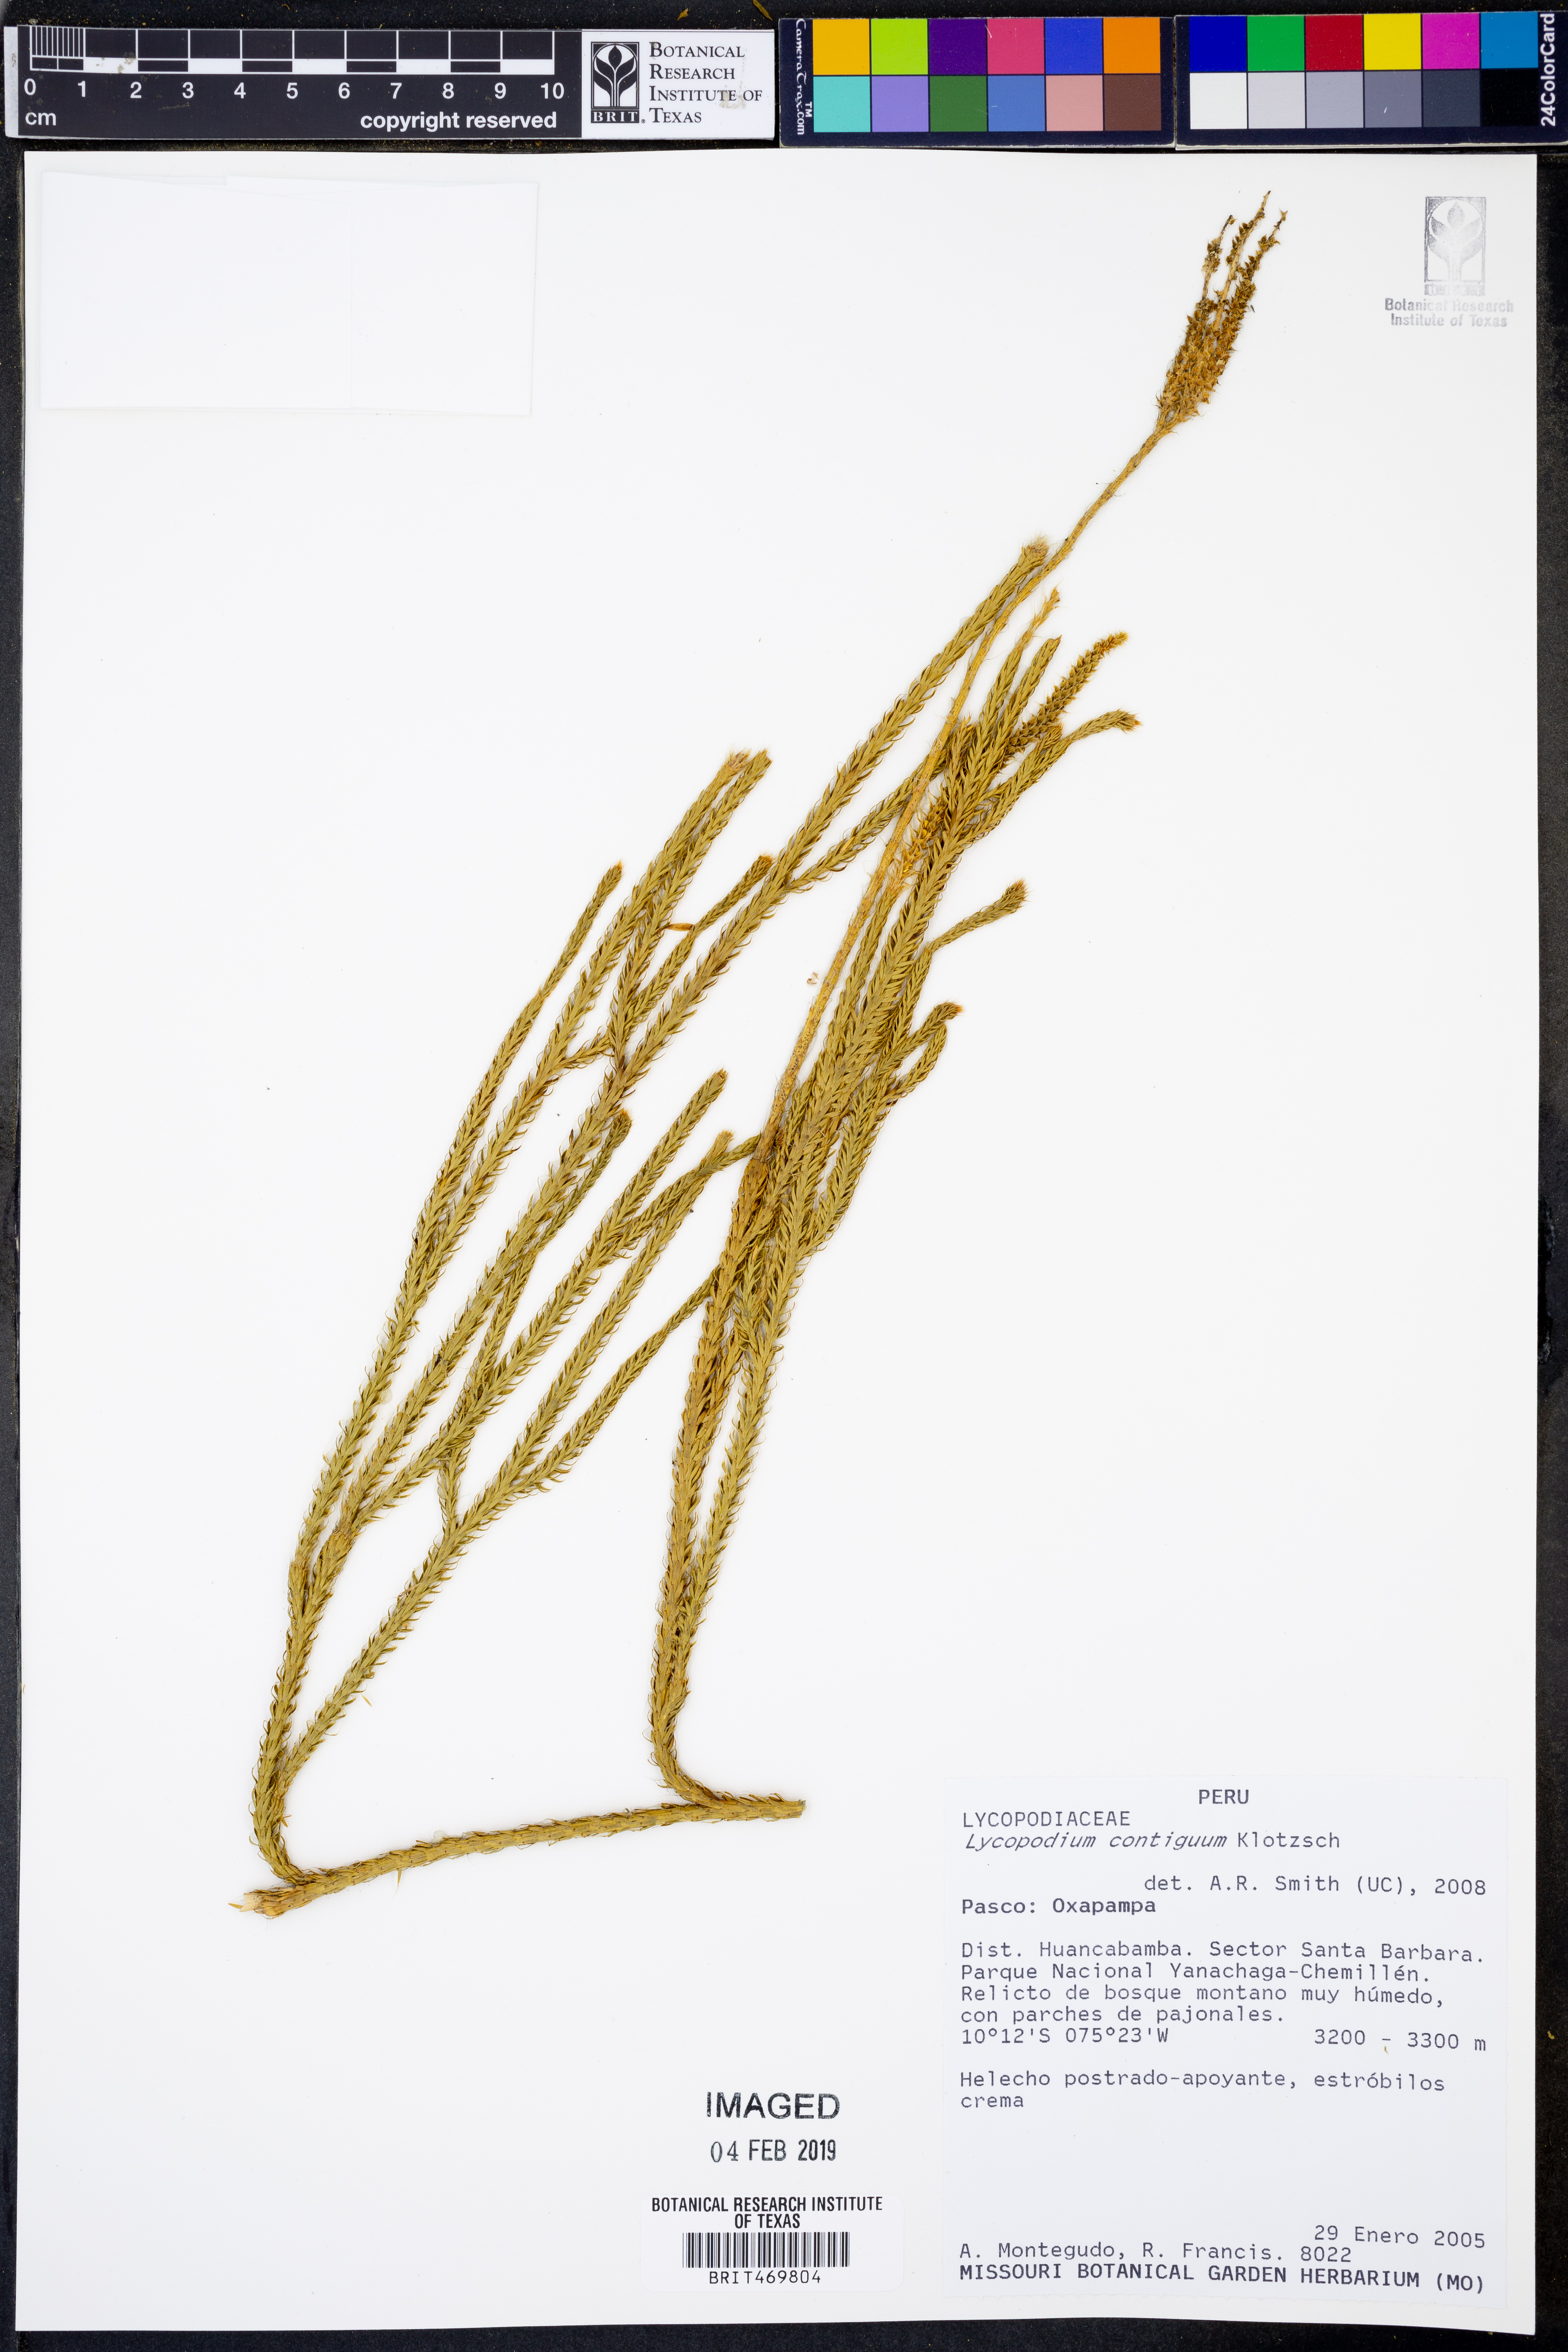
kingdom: Plantae
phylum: Tracheophyta
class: Lycopodiopsida
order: Lycopodiales
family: Lycopodiaceae
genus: Lycopodium
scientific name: Lycopodium clavatum
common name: Stag's-horn clubmoss
